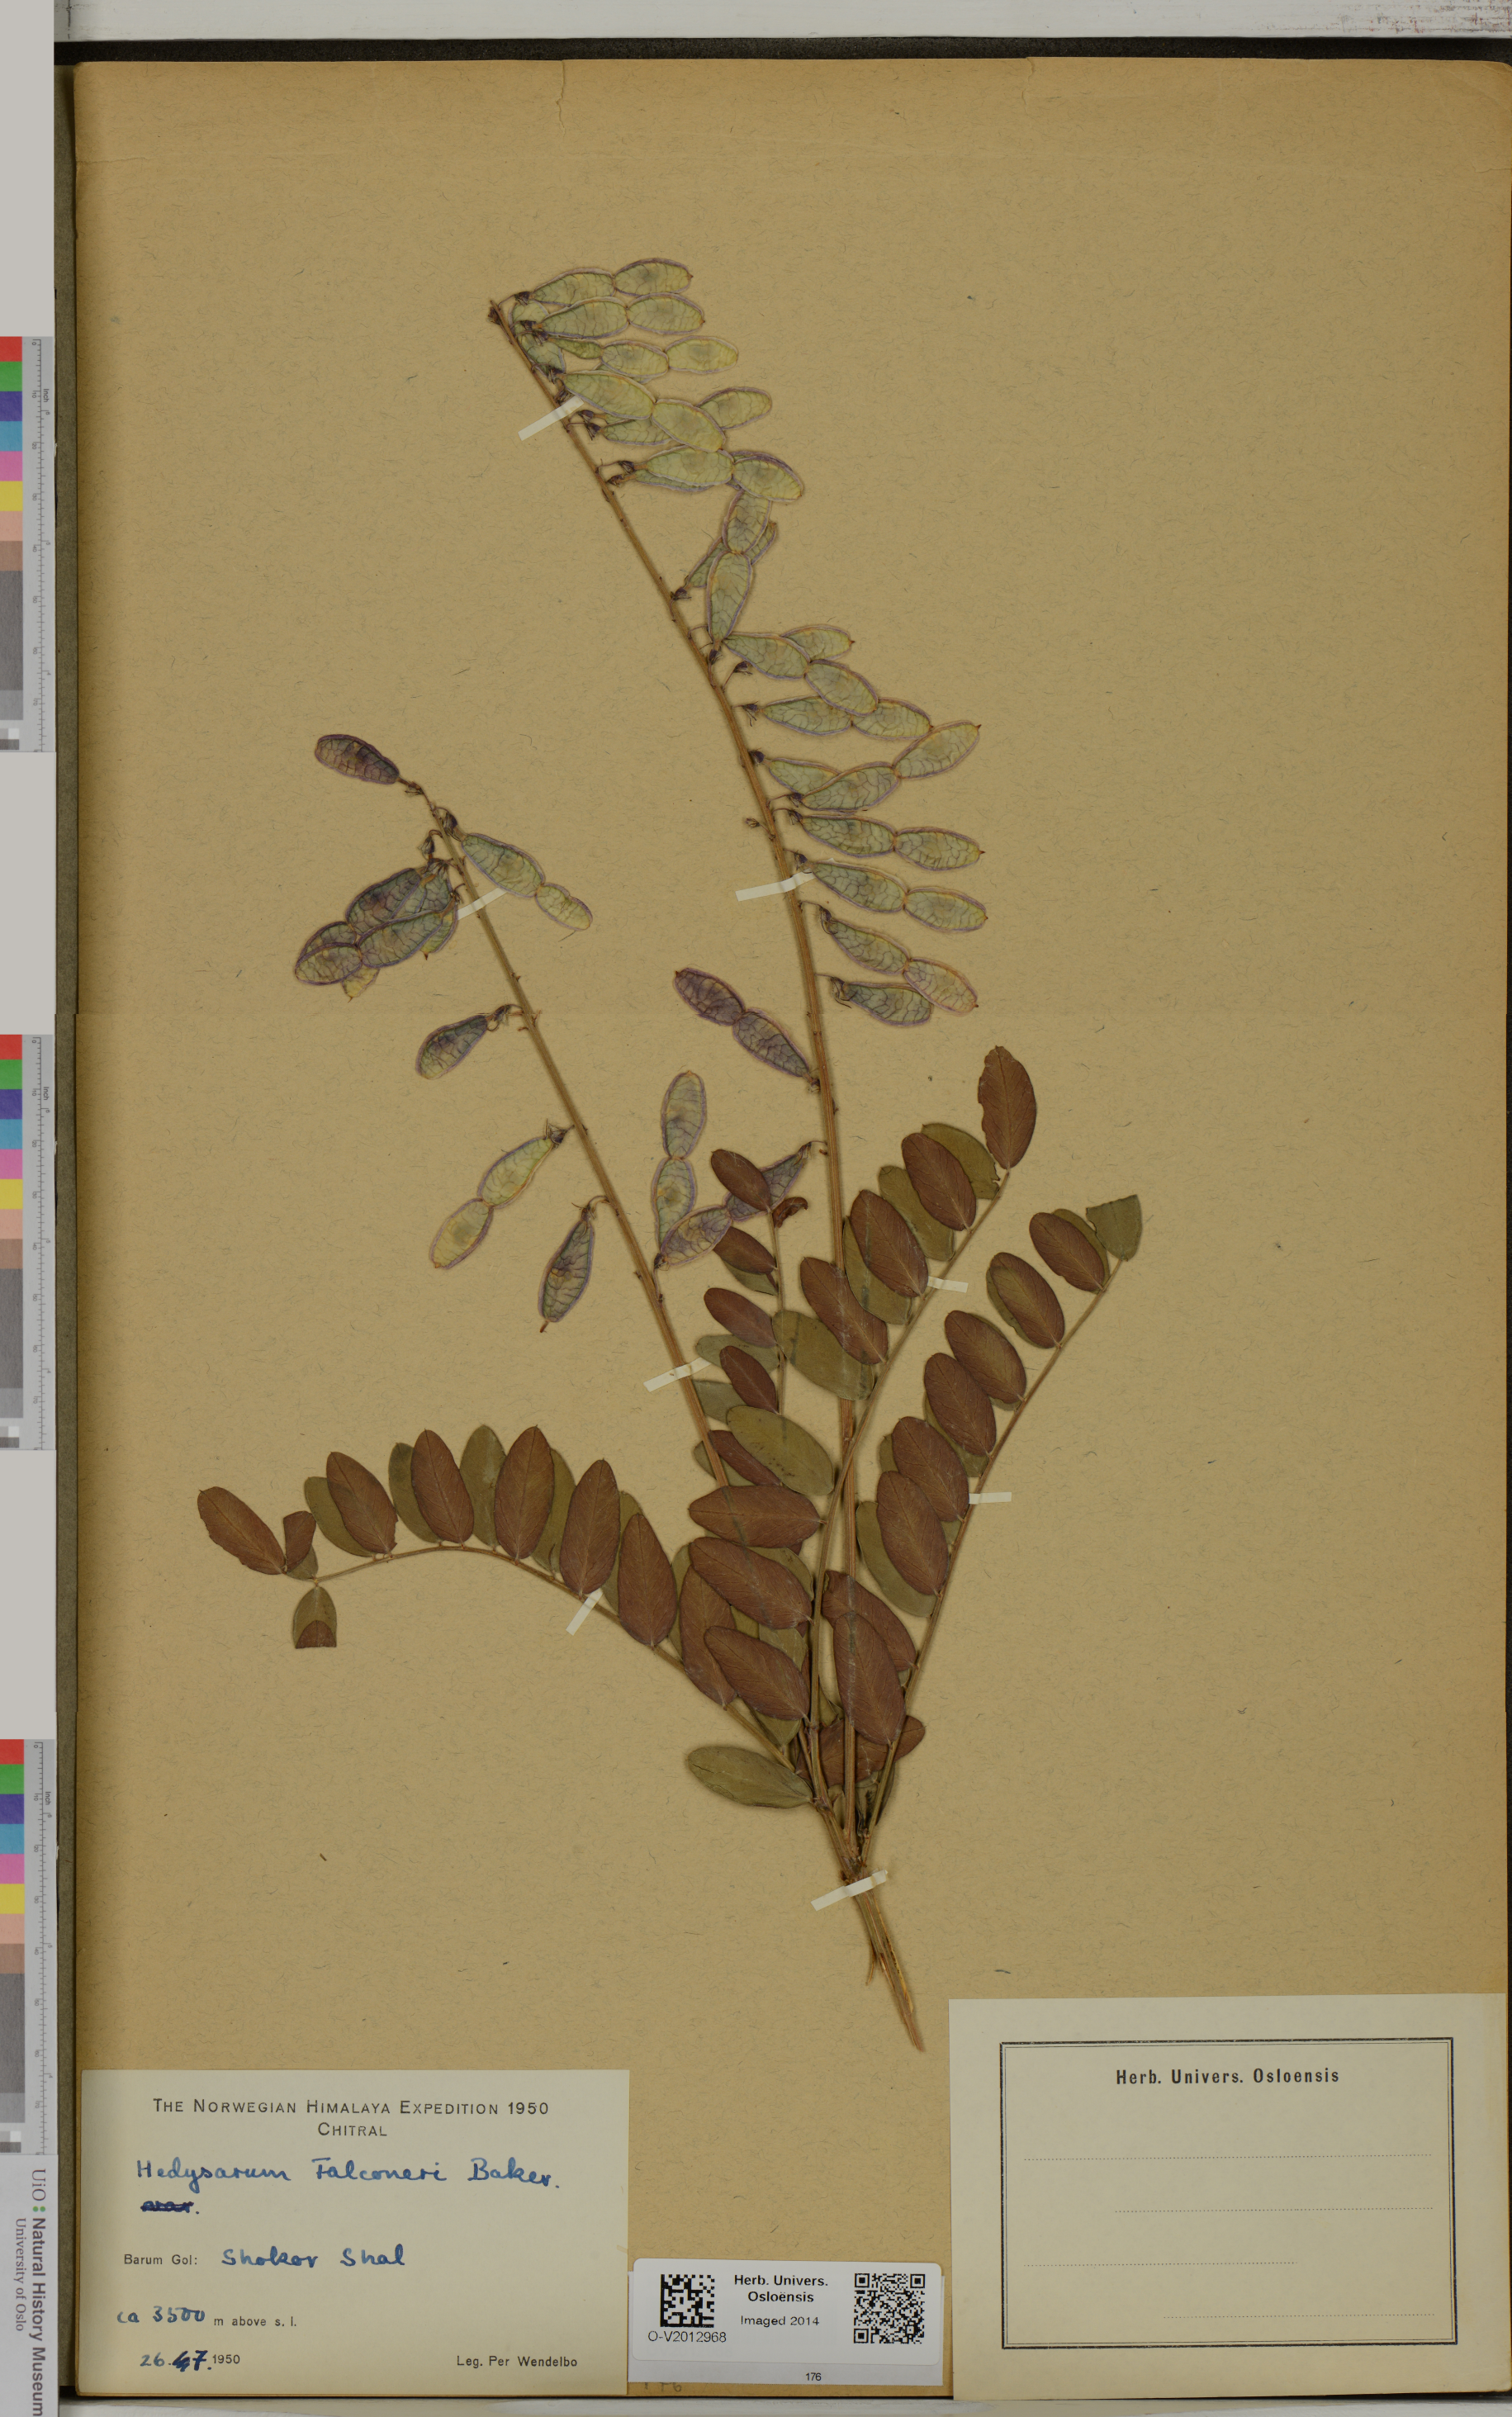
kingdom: Plantae
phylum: Tracheophyta
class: Magnoliopsida
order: Fabales
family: Fabaceae
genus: Hedysarum
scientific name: Hedysarum falconeri
